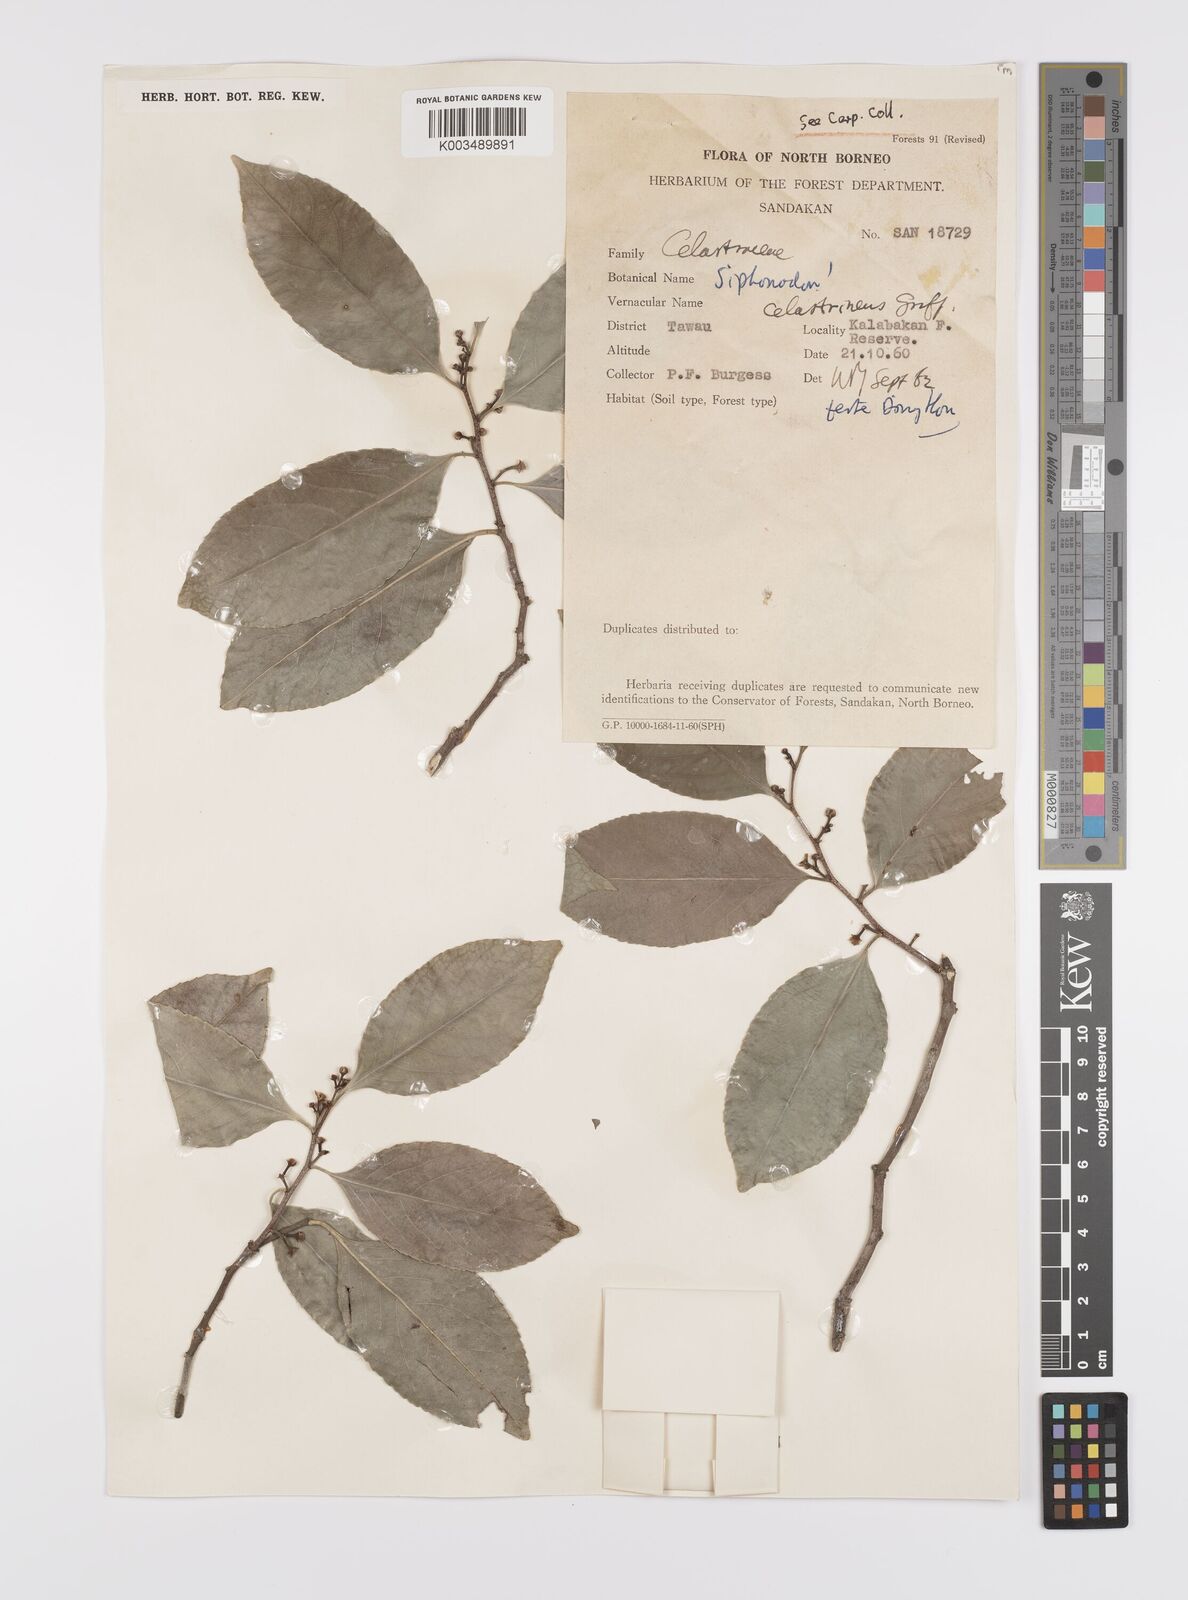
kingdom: Plantae
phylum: Tracheophyta
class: Magnoliopsida
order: Celastrales
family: Celastraceae
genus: Siphonodon
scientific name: Siphonodon celastrineus
